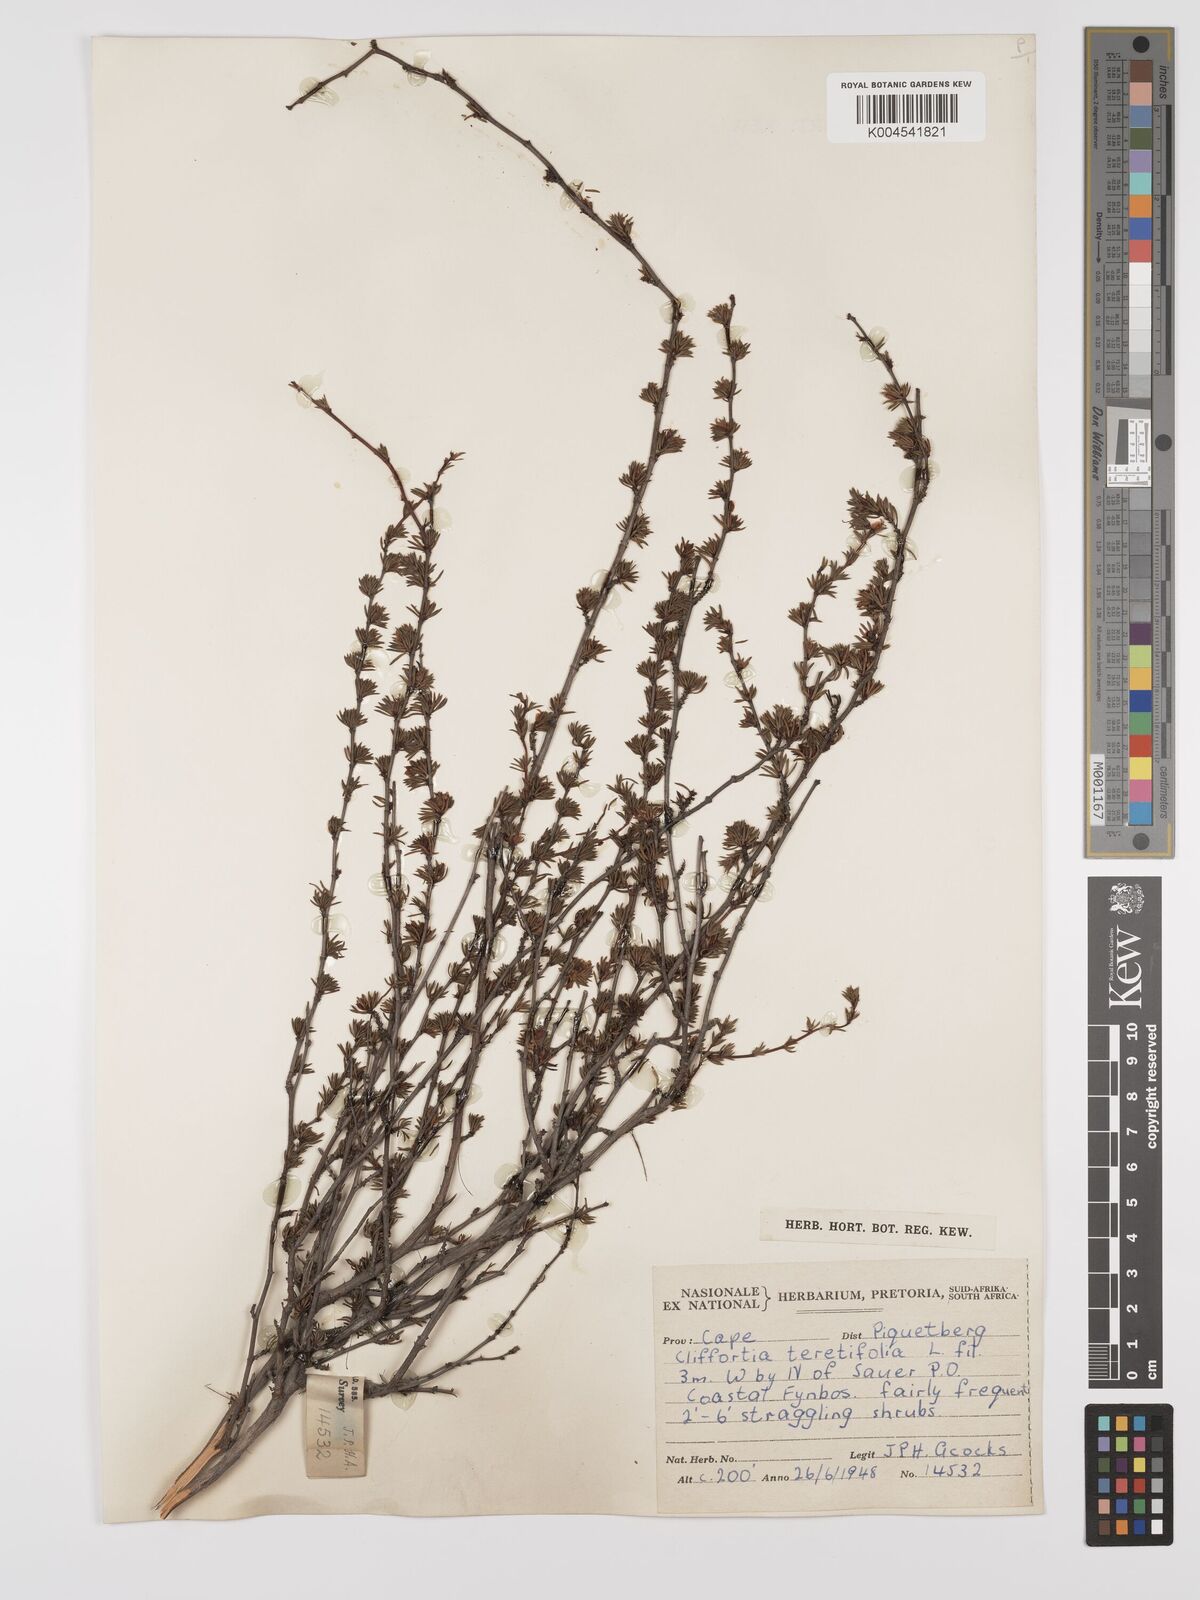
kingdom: Plantae
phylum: Tracheophyta
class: Magnoliopsida
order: Rosales
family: Rosaceae
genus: Cliffortia
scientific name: Cliffortia teretifolia
